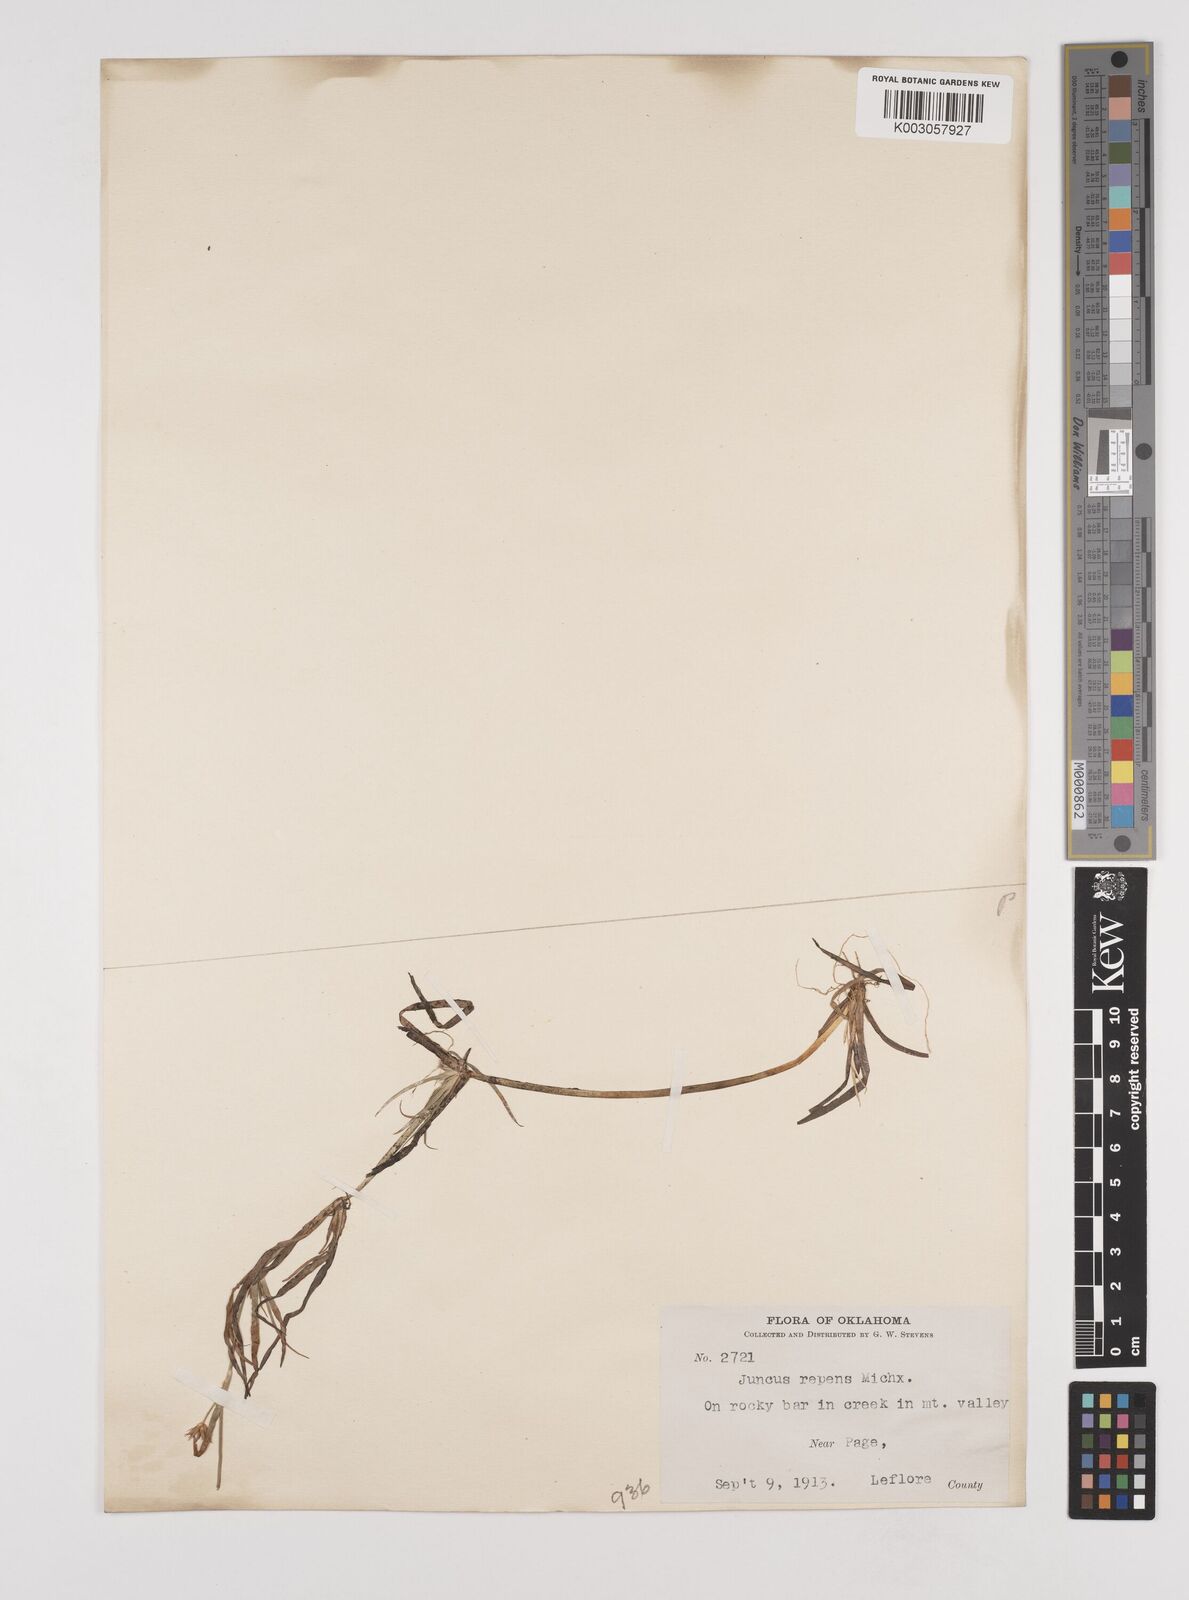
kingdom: Plantae
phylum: Tracheophyta
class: Liliopsida
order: Poales
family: Juncaceae
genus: Juncus
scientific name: Juncus repens
